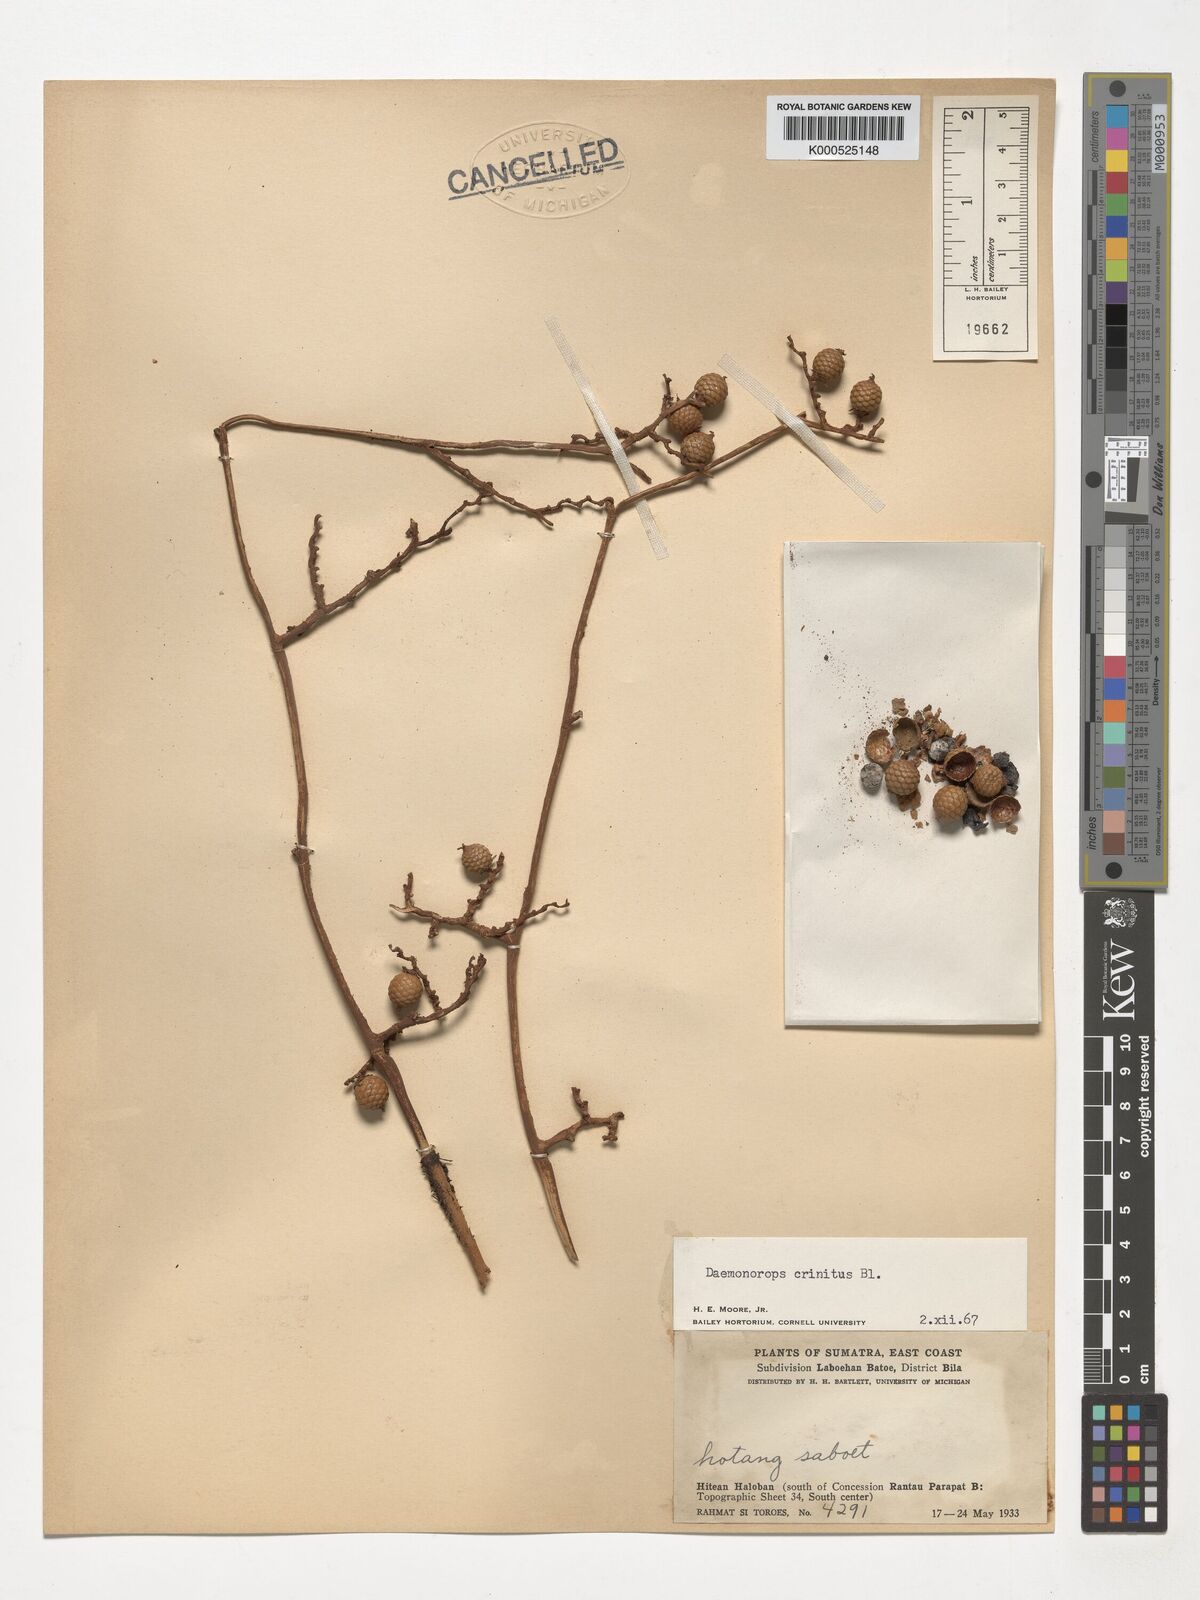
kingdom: Plantae
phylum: Tracheophyta
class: Liliopsida
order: Arecales
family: Arecaceae
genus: Calamus
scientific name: Calamus crinitus
